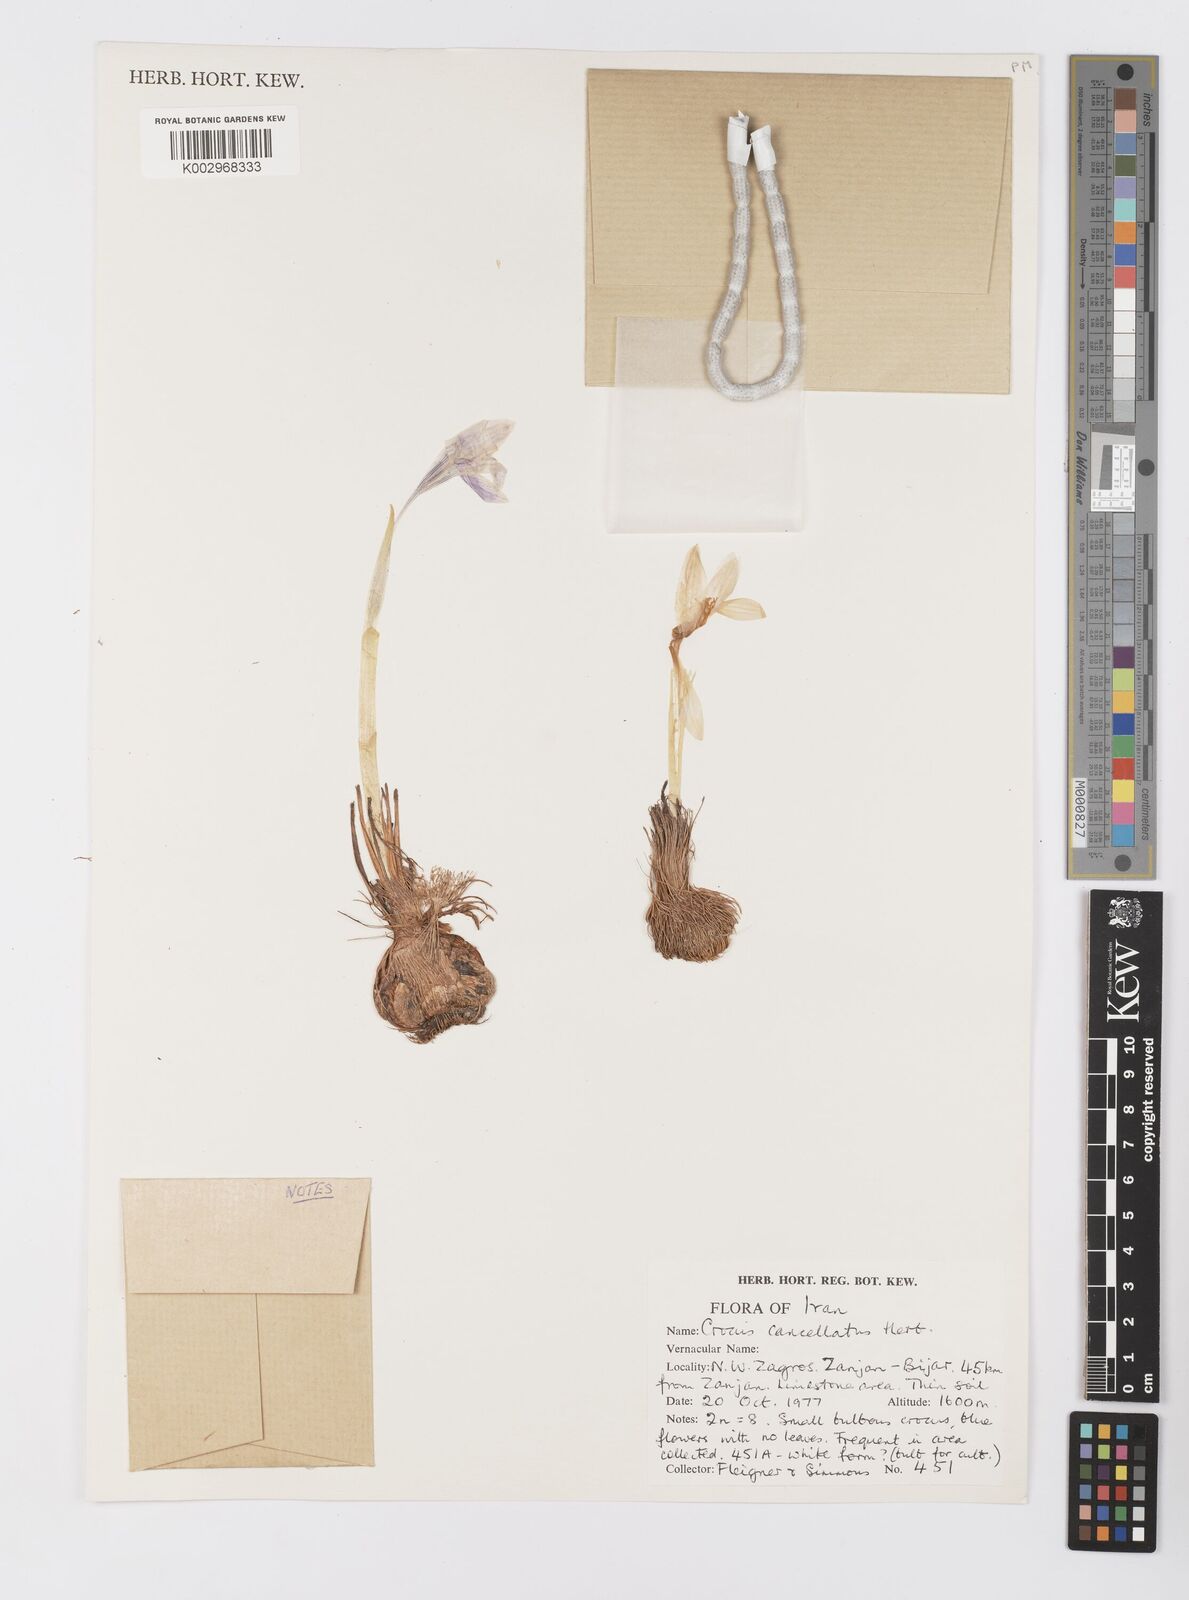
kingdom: Plantae
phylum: Tracheophyta
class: Liliopsida
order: Asparagales
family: Iridaceae
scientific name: Iridaceae
